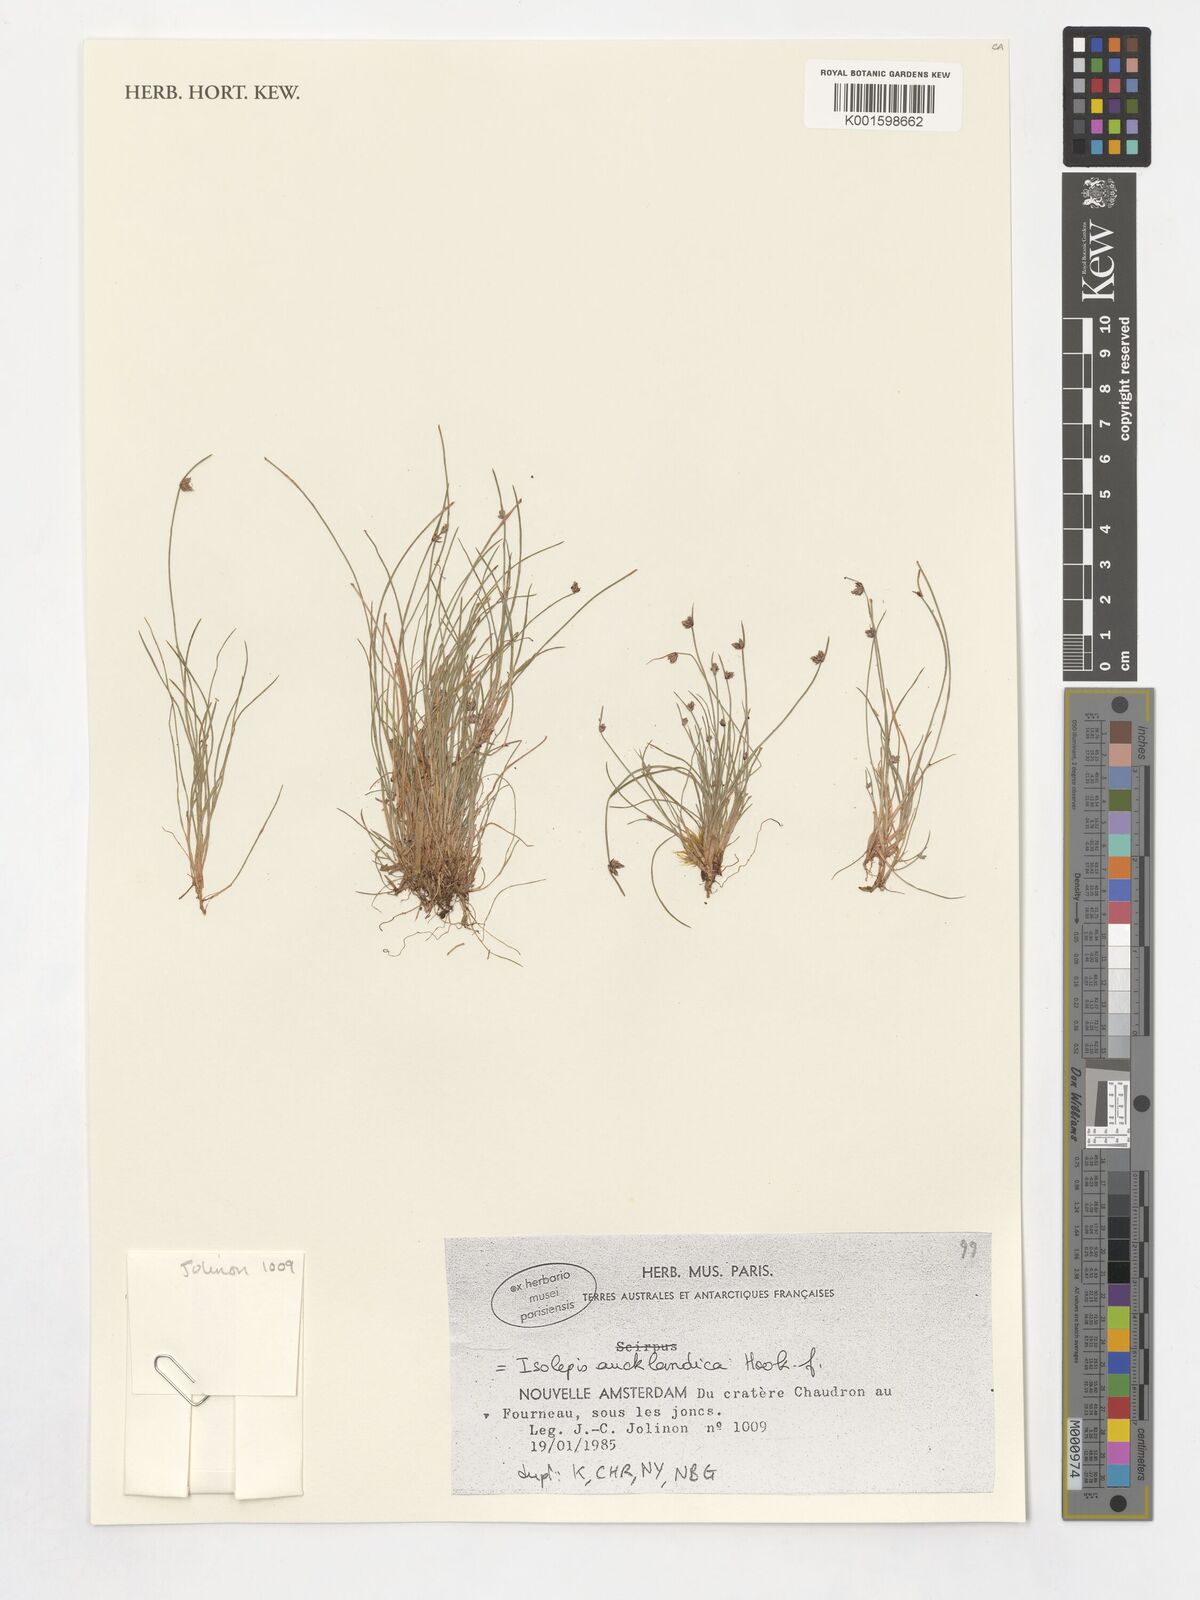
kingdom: Plantae
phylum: Tracheophyta
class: Liliopsida
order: Poales
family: Cyperaceae
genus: Isolepis
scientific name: Isolepis aucklandica
